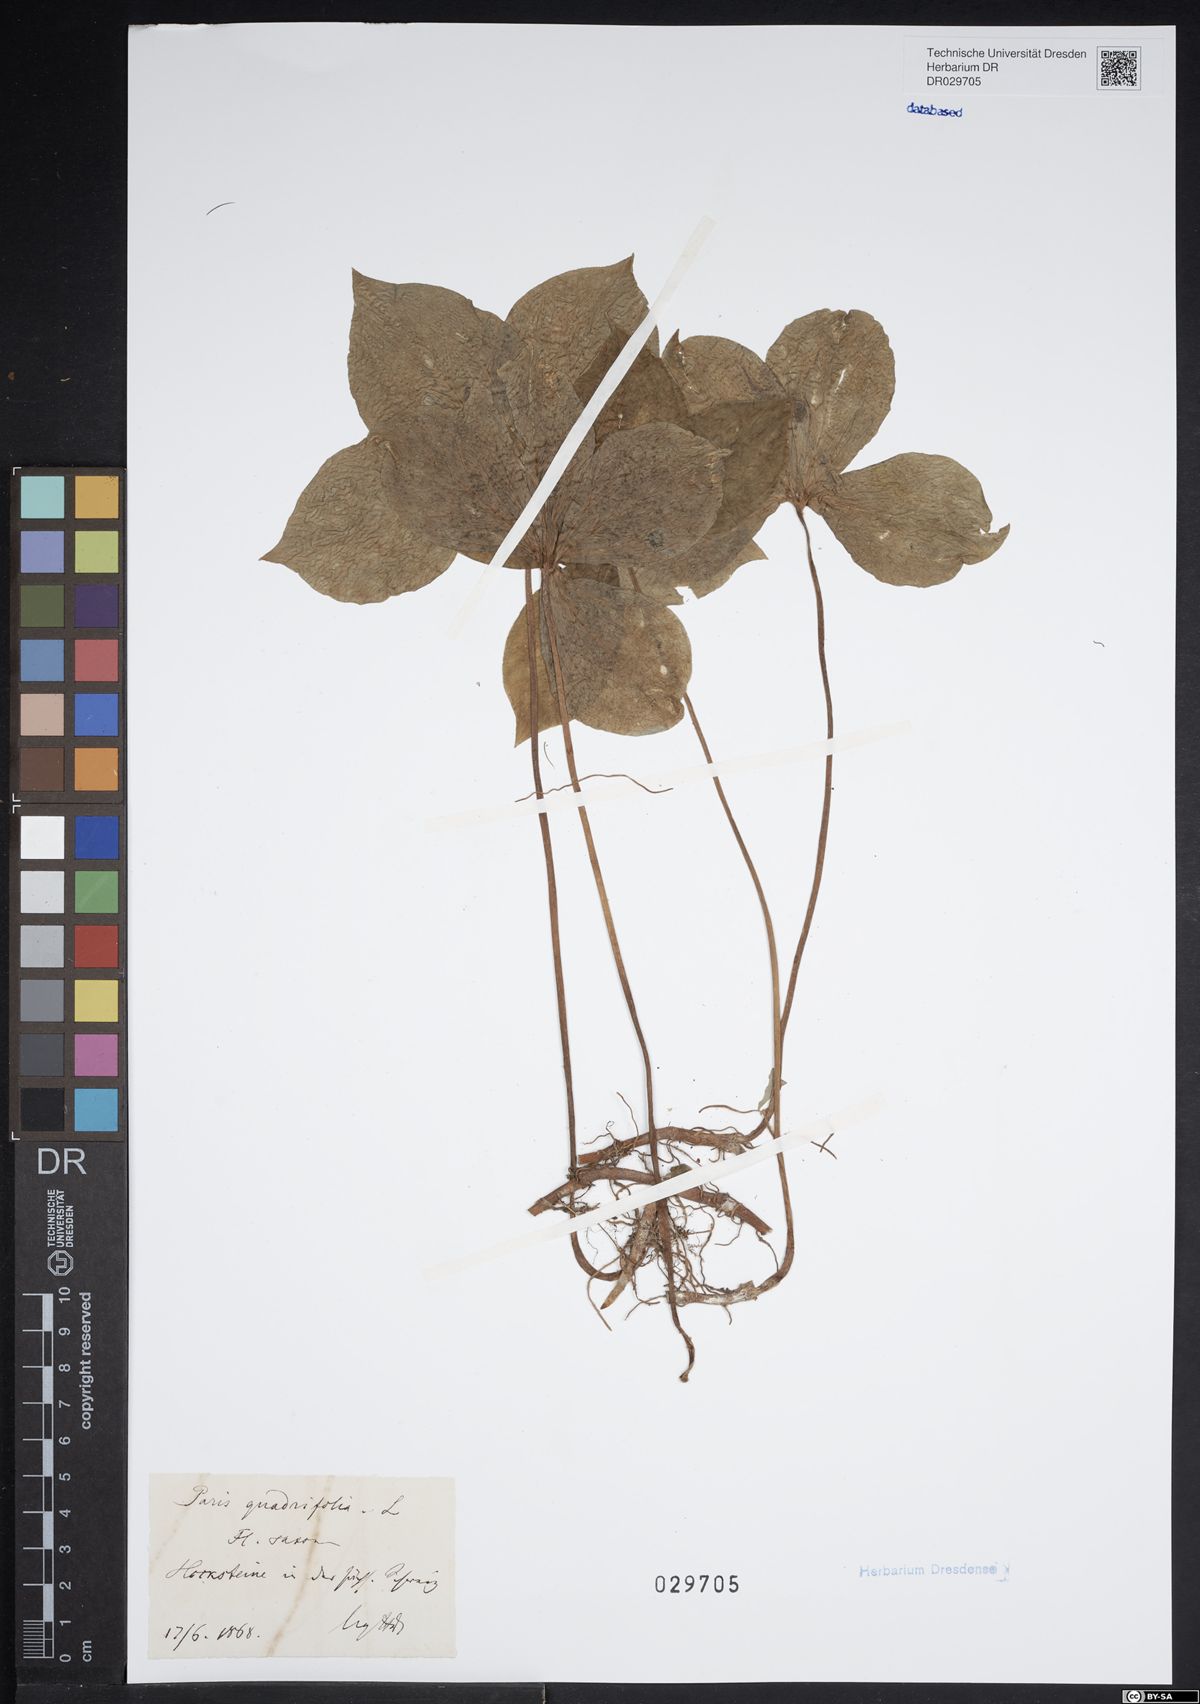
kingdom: Plantae
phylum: Tracheophyta
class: Liliopsida
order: Liliales
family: Melanthiaceae
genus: Paris
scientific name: Paris quadrifolia
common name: Herb-paris
